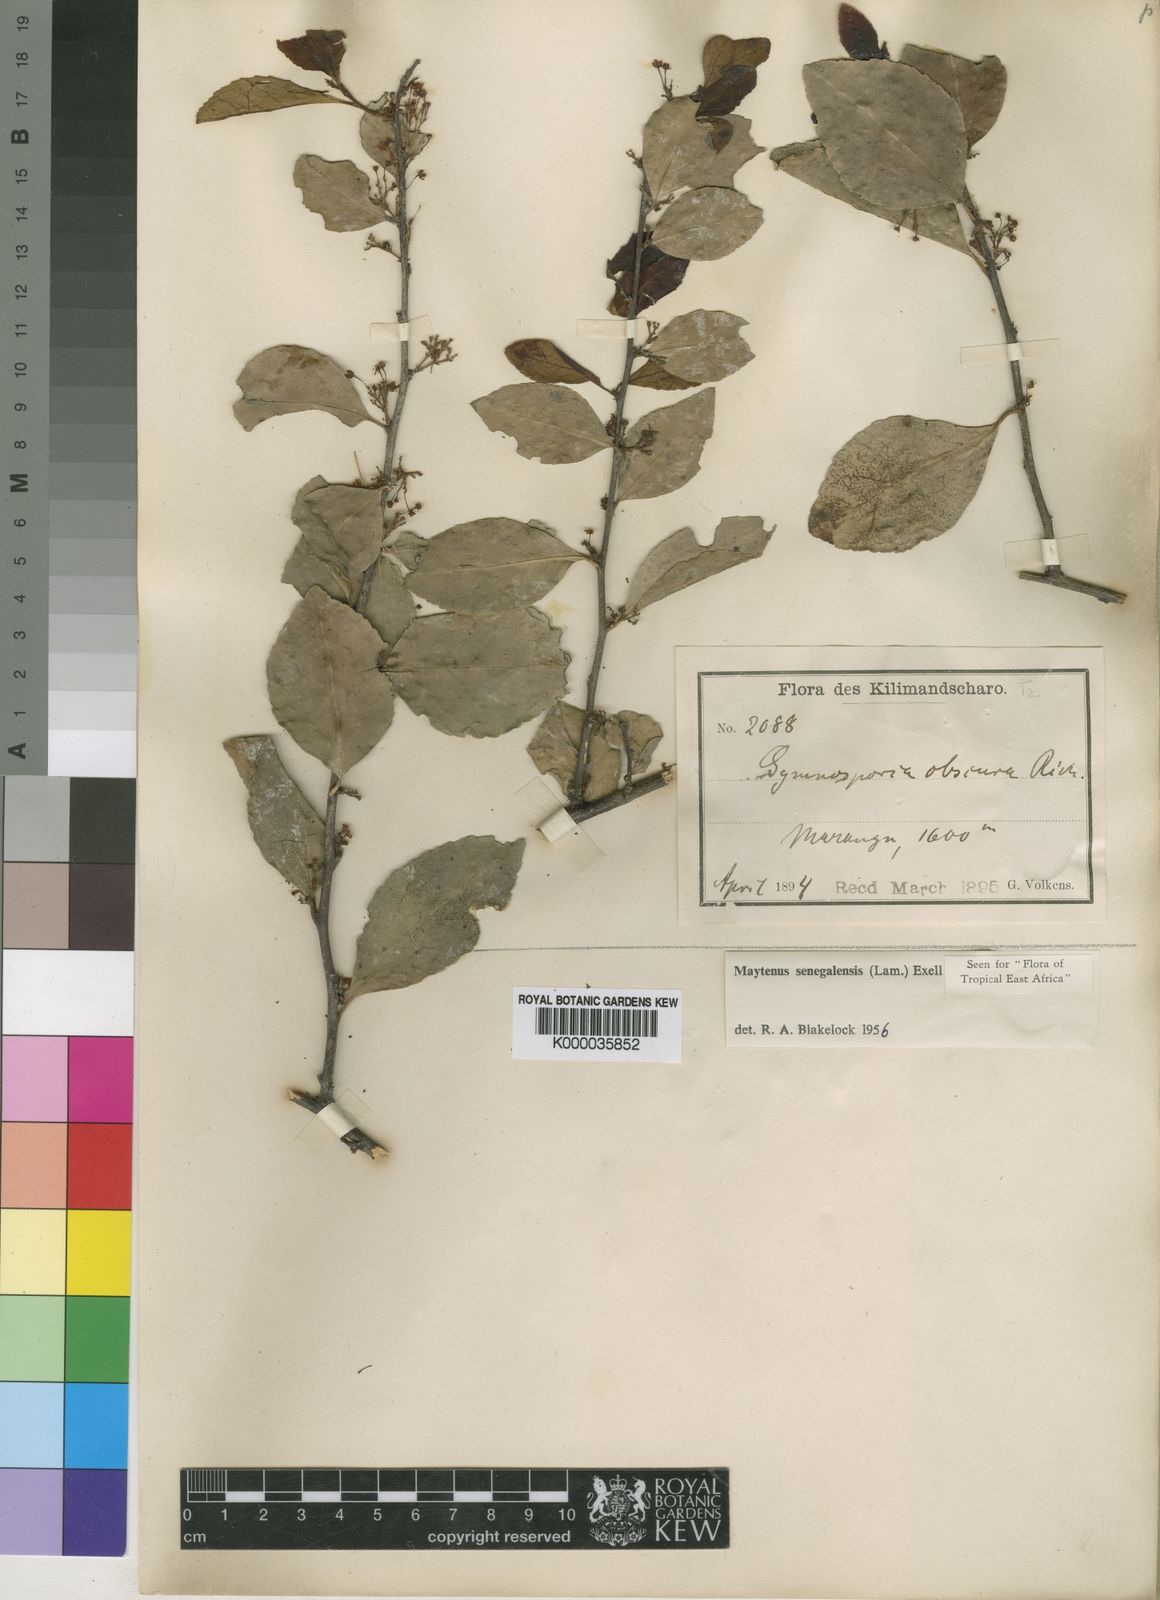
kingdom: Plantae
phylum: Tracheophyta
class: Magnoliopsida
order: Celastrales
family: Celastraceae
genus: Gymnosporia
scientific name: Gymnosporia senegalensis
